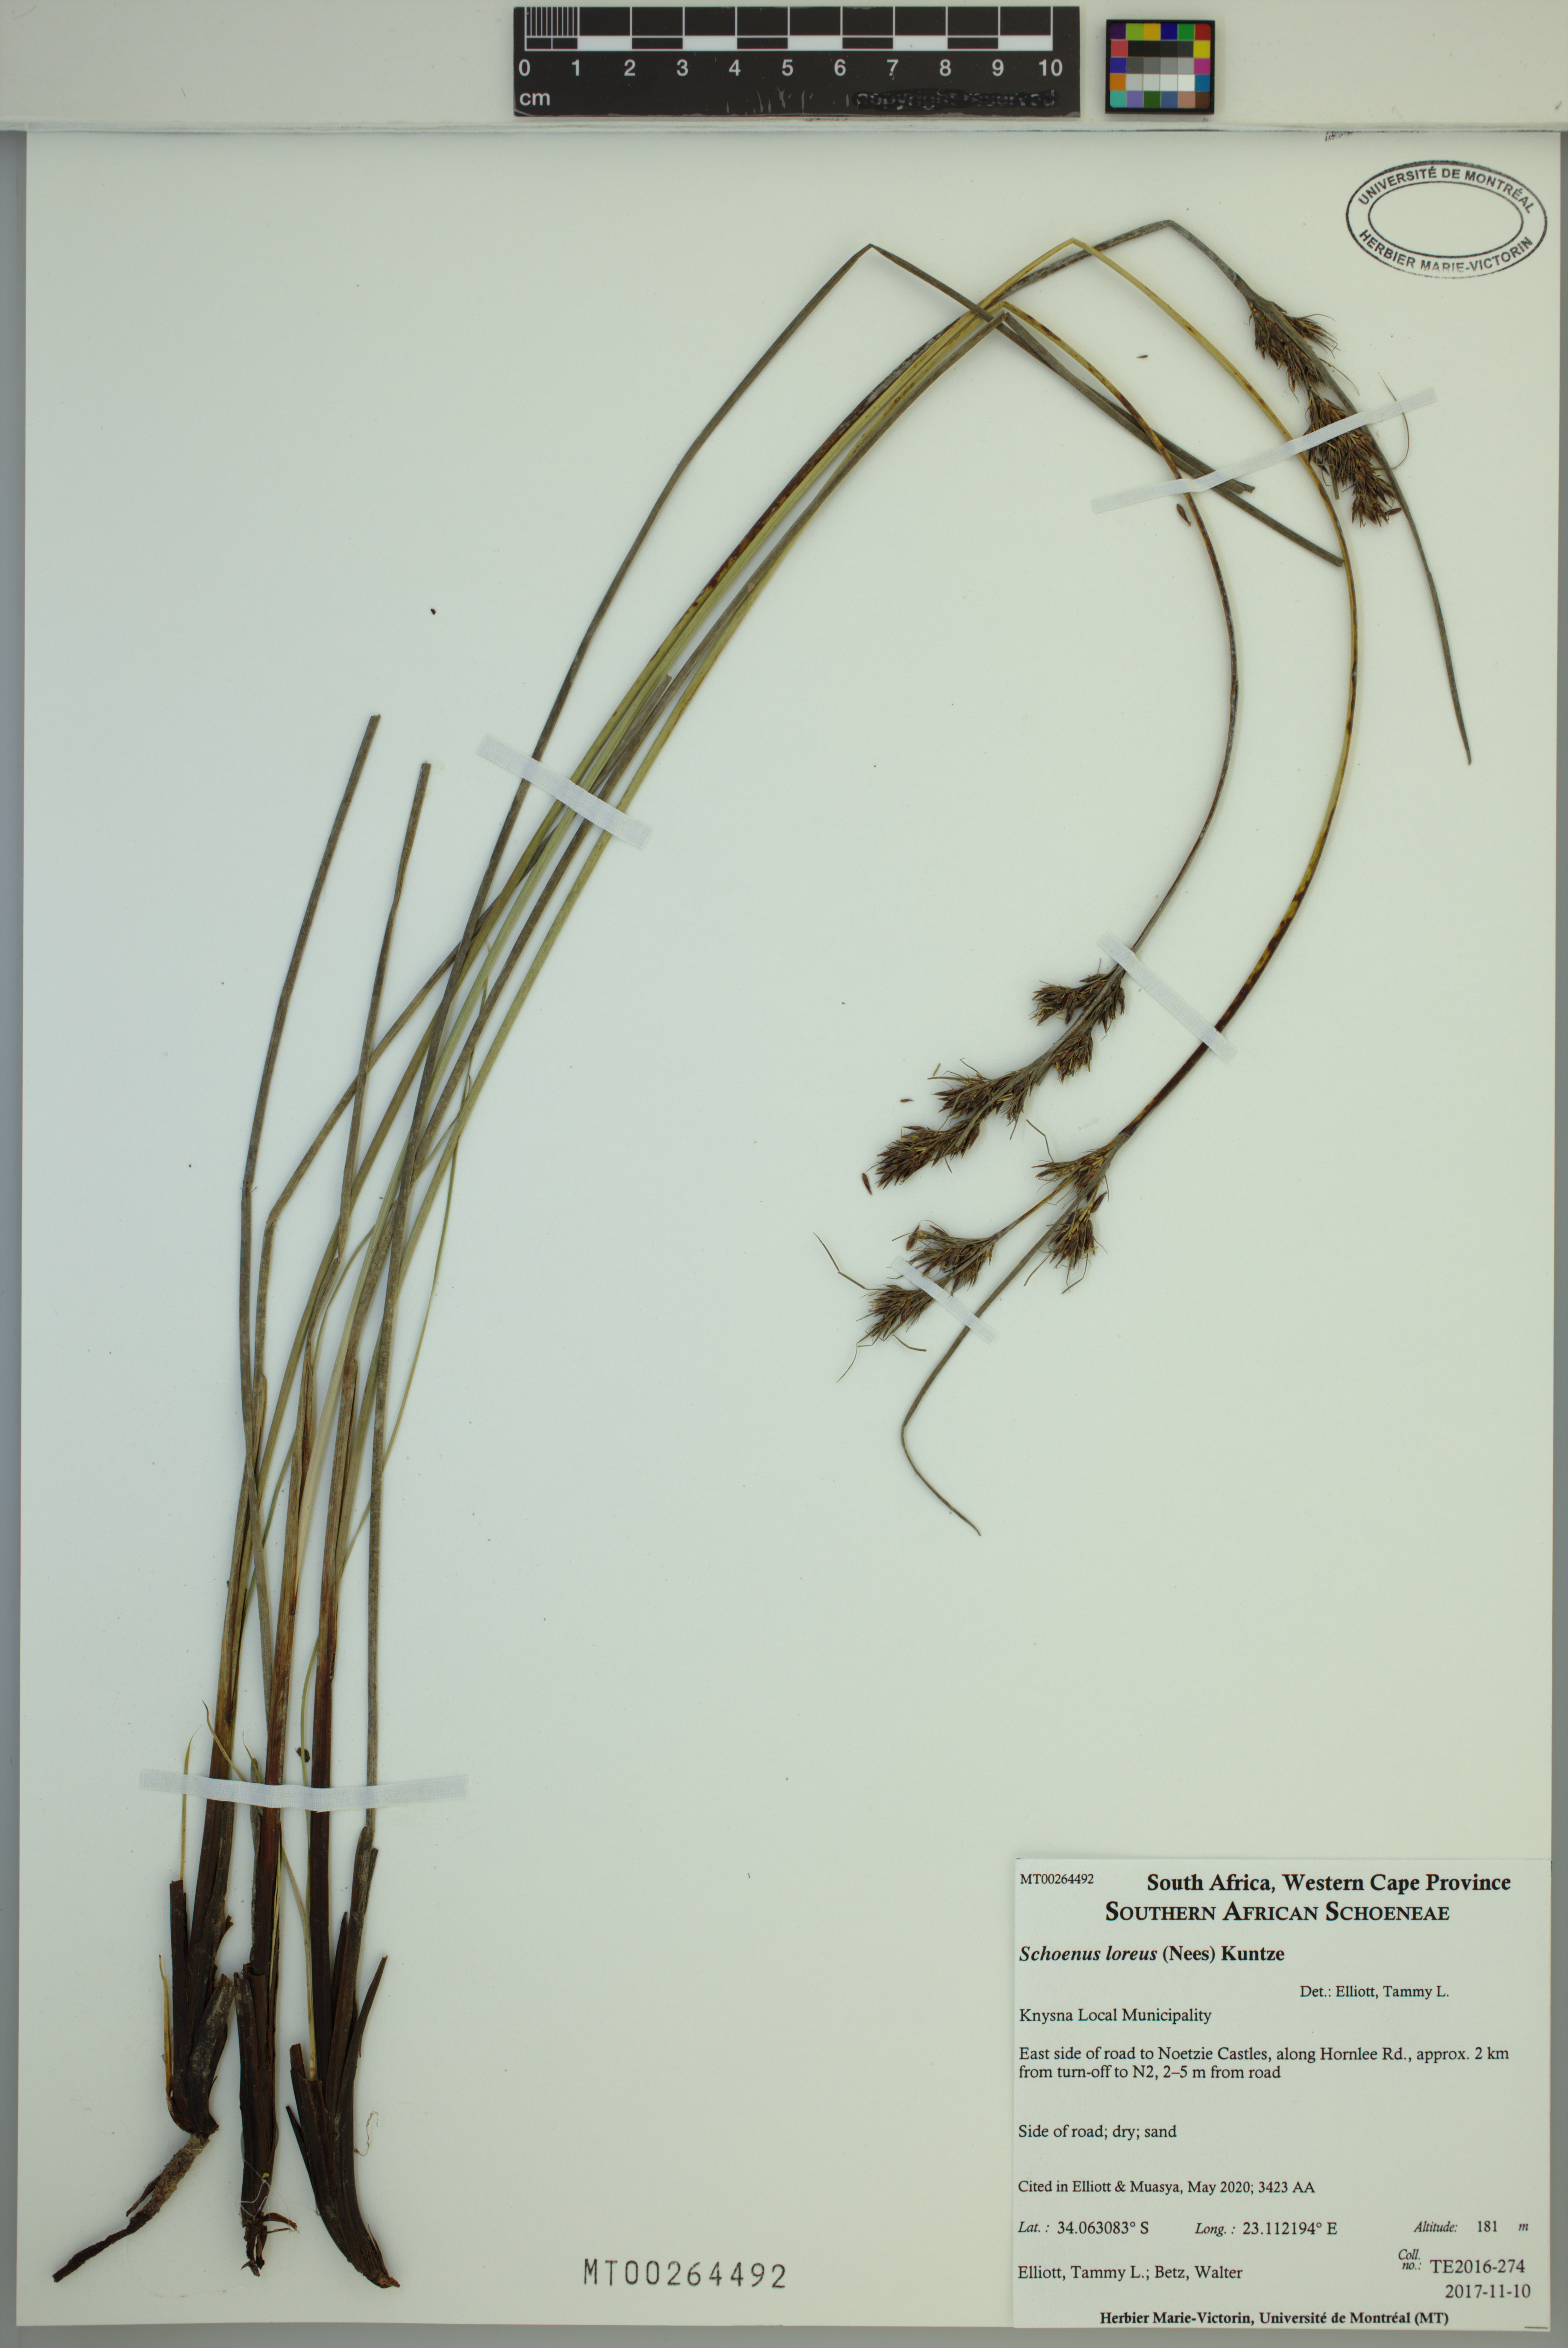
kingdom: Plantae
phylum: Tracheophyta
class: Liliopsida
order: Poales
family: Cyperaceae
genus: Schoenus
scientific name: Schoenus loreus
